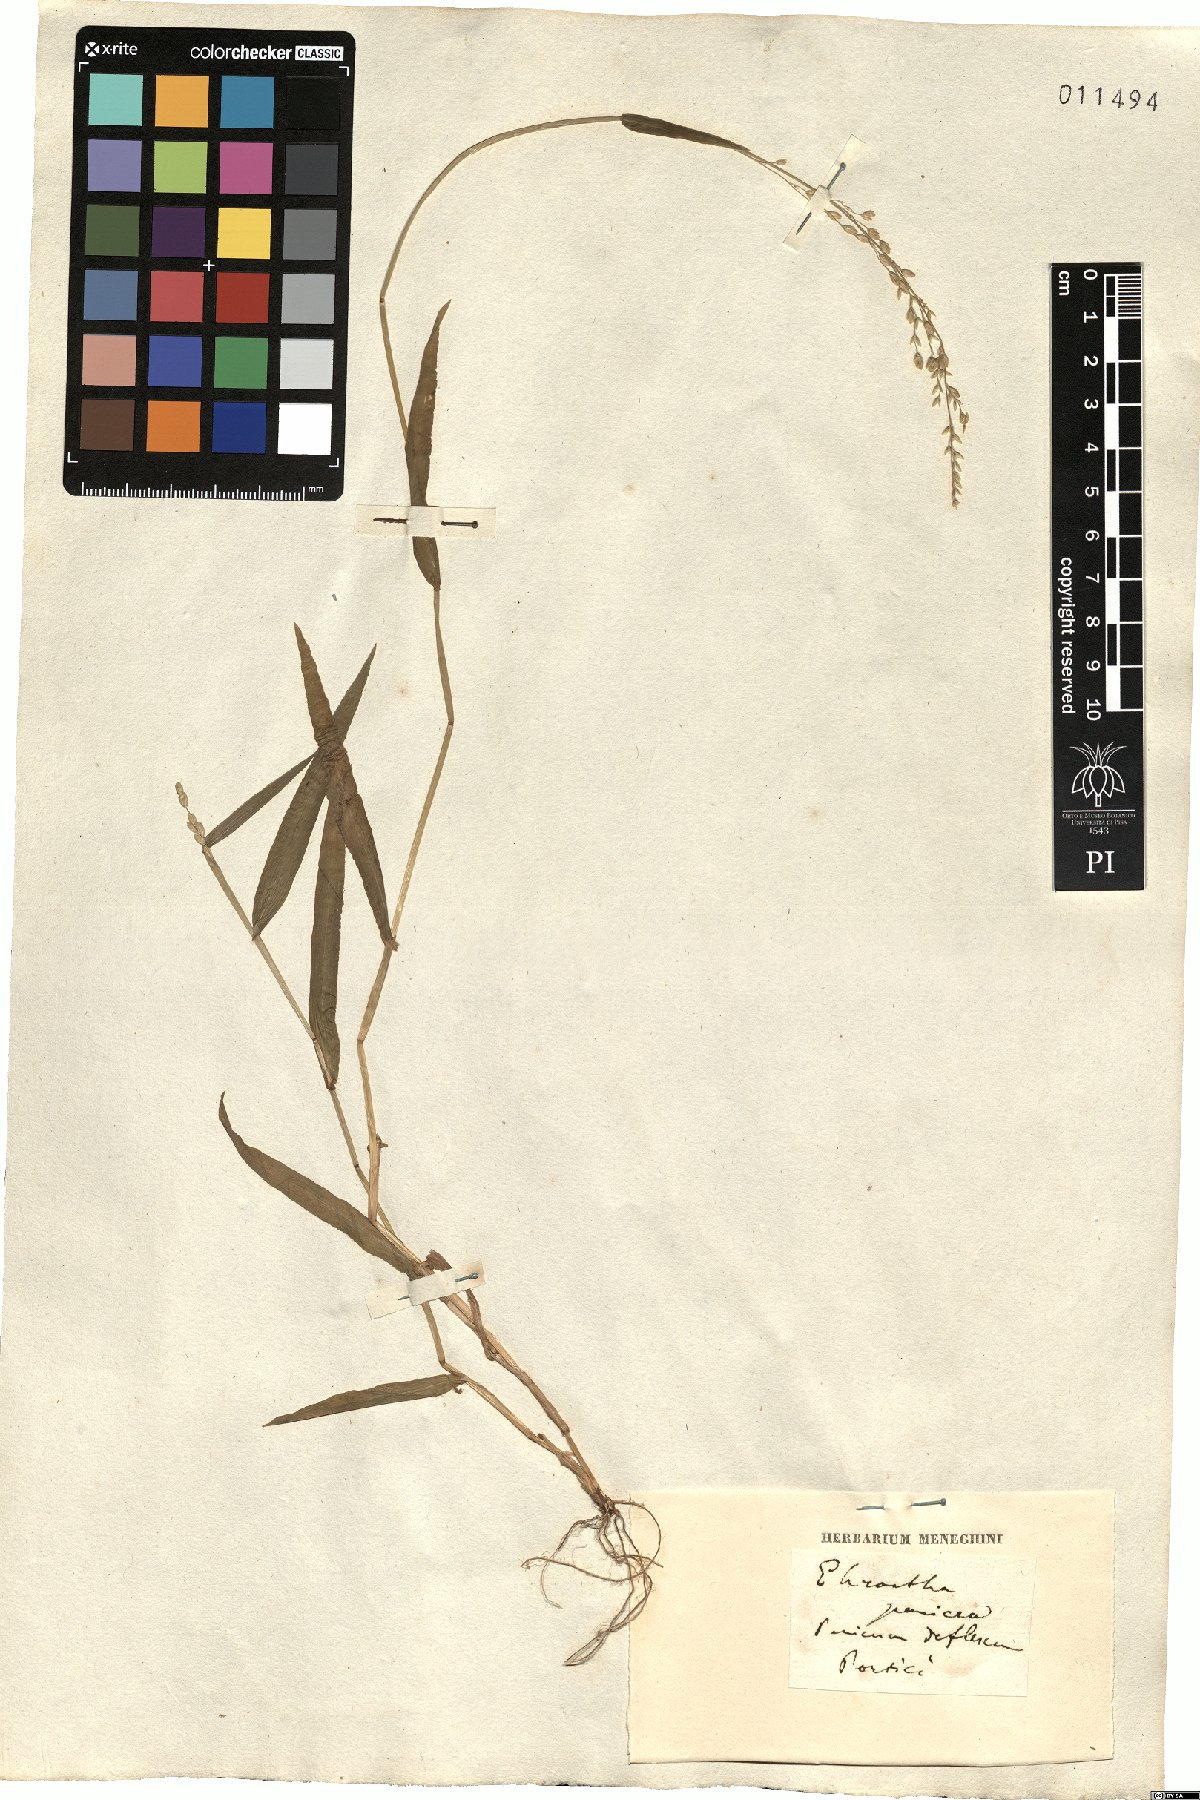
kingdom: Plantae
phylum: Tracheophyta
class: Liliopsida
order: Poales
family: Poaceae
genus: Ehrharta
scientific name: Ehrharta erecta
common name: Panic veldtgrass
